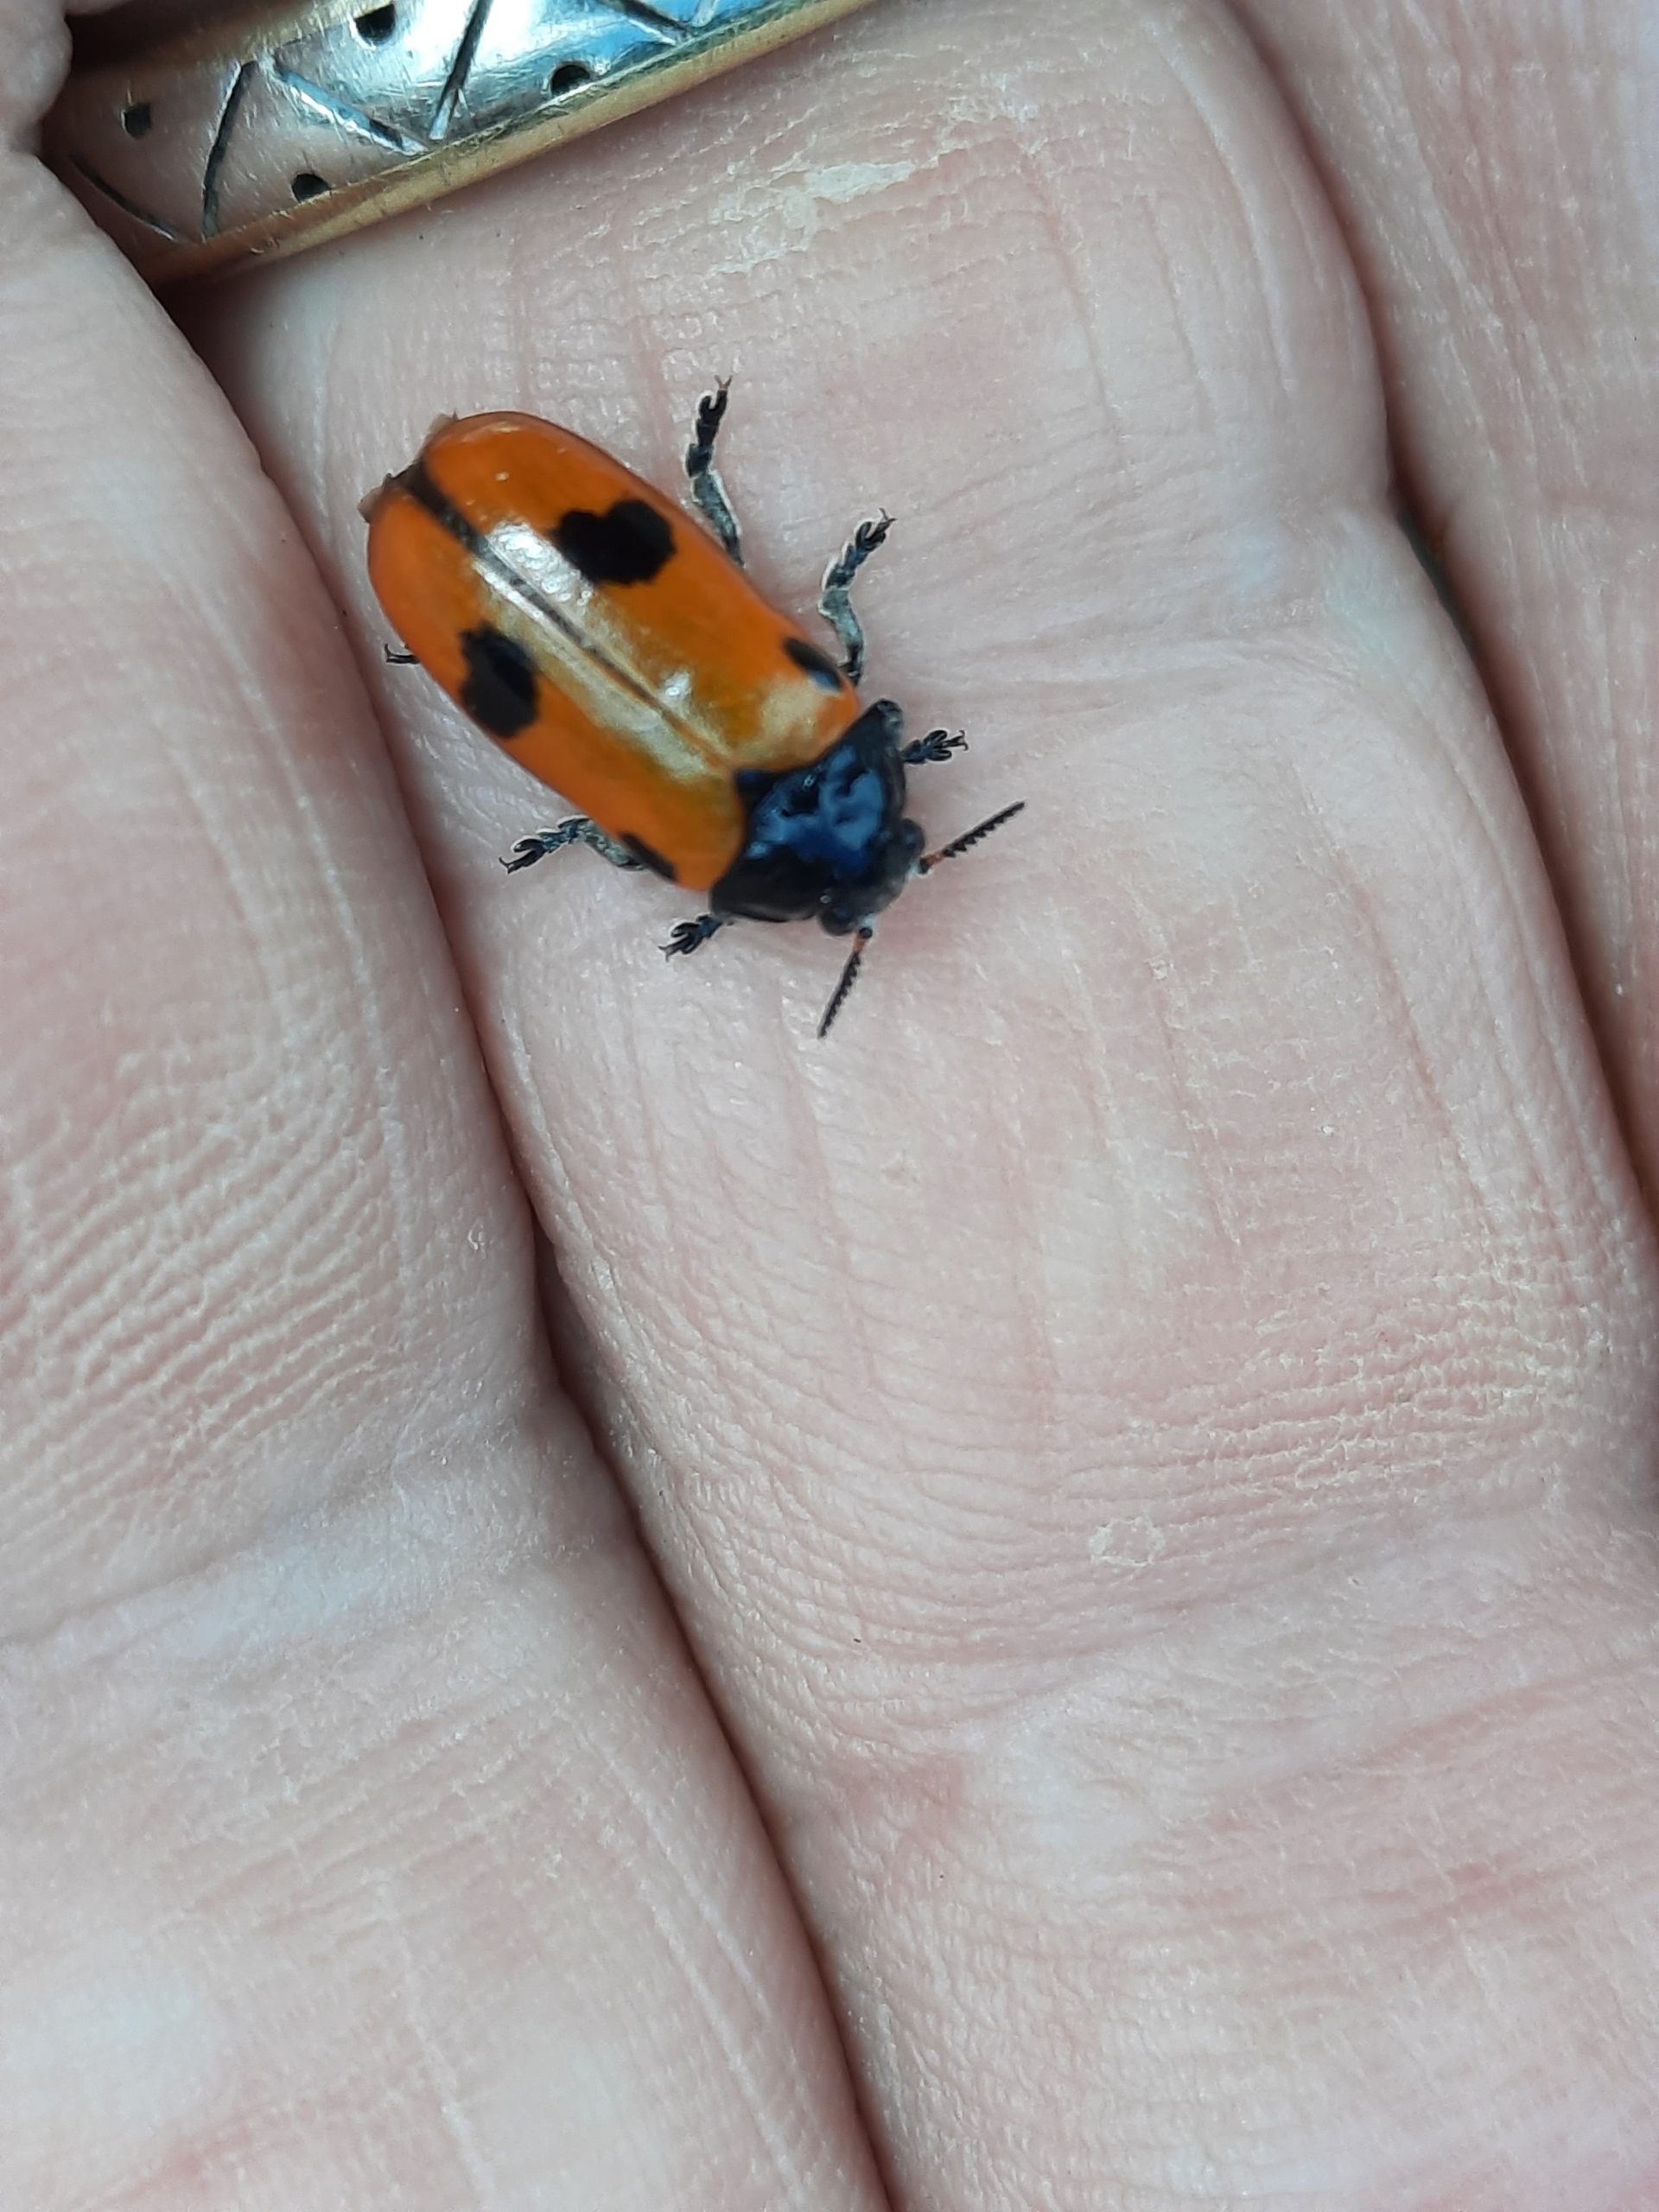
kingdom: Animalia
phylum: Arthropoda
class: Insecta
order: Coleoptera
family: Chrysomelidae
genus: Clytra
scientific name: Clytra quadripunctata
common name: Myrebladbille
